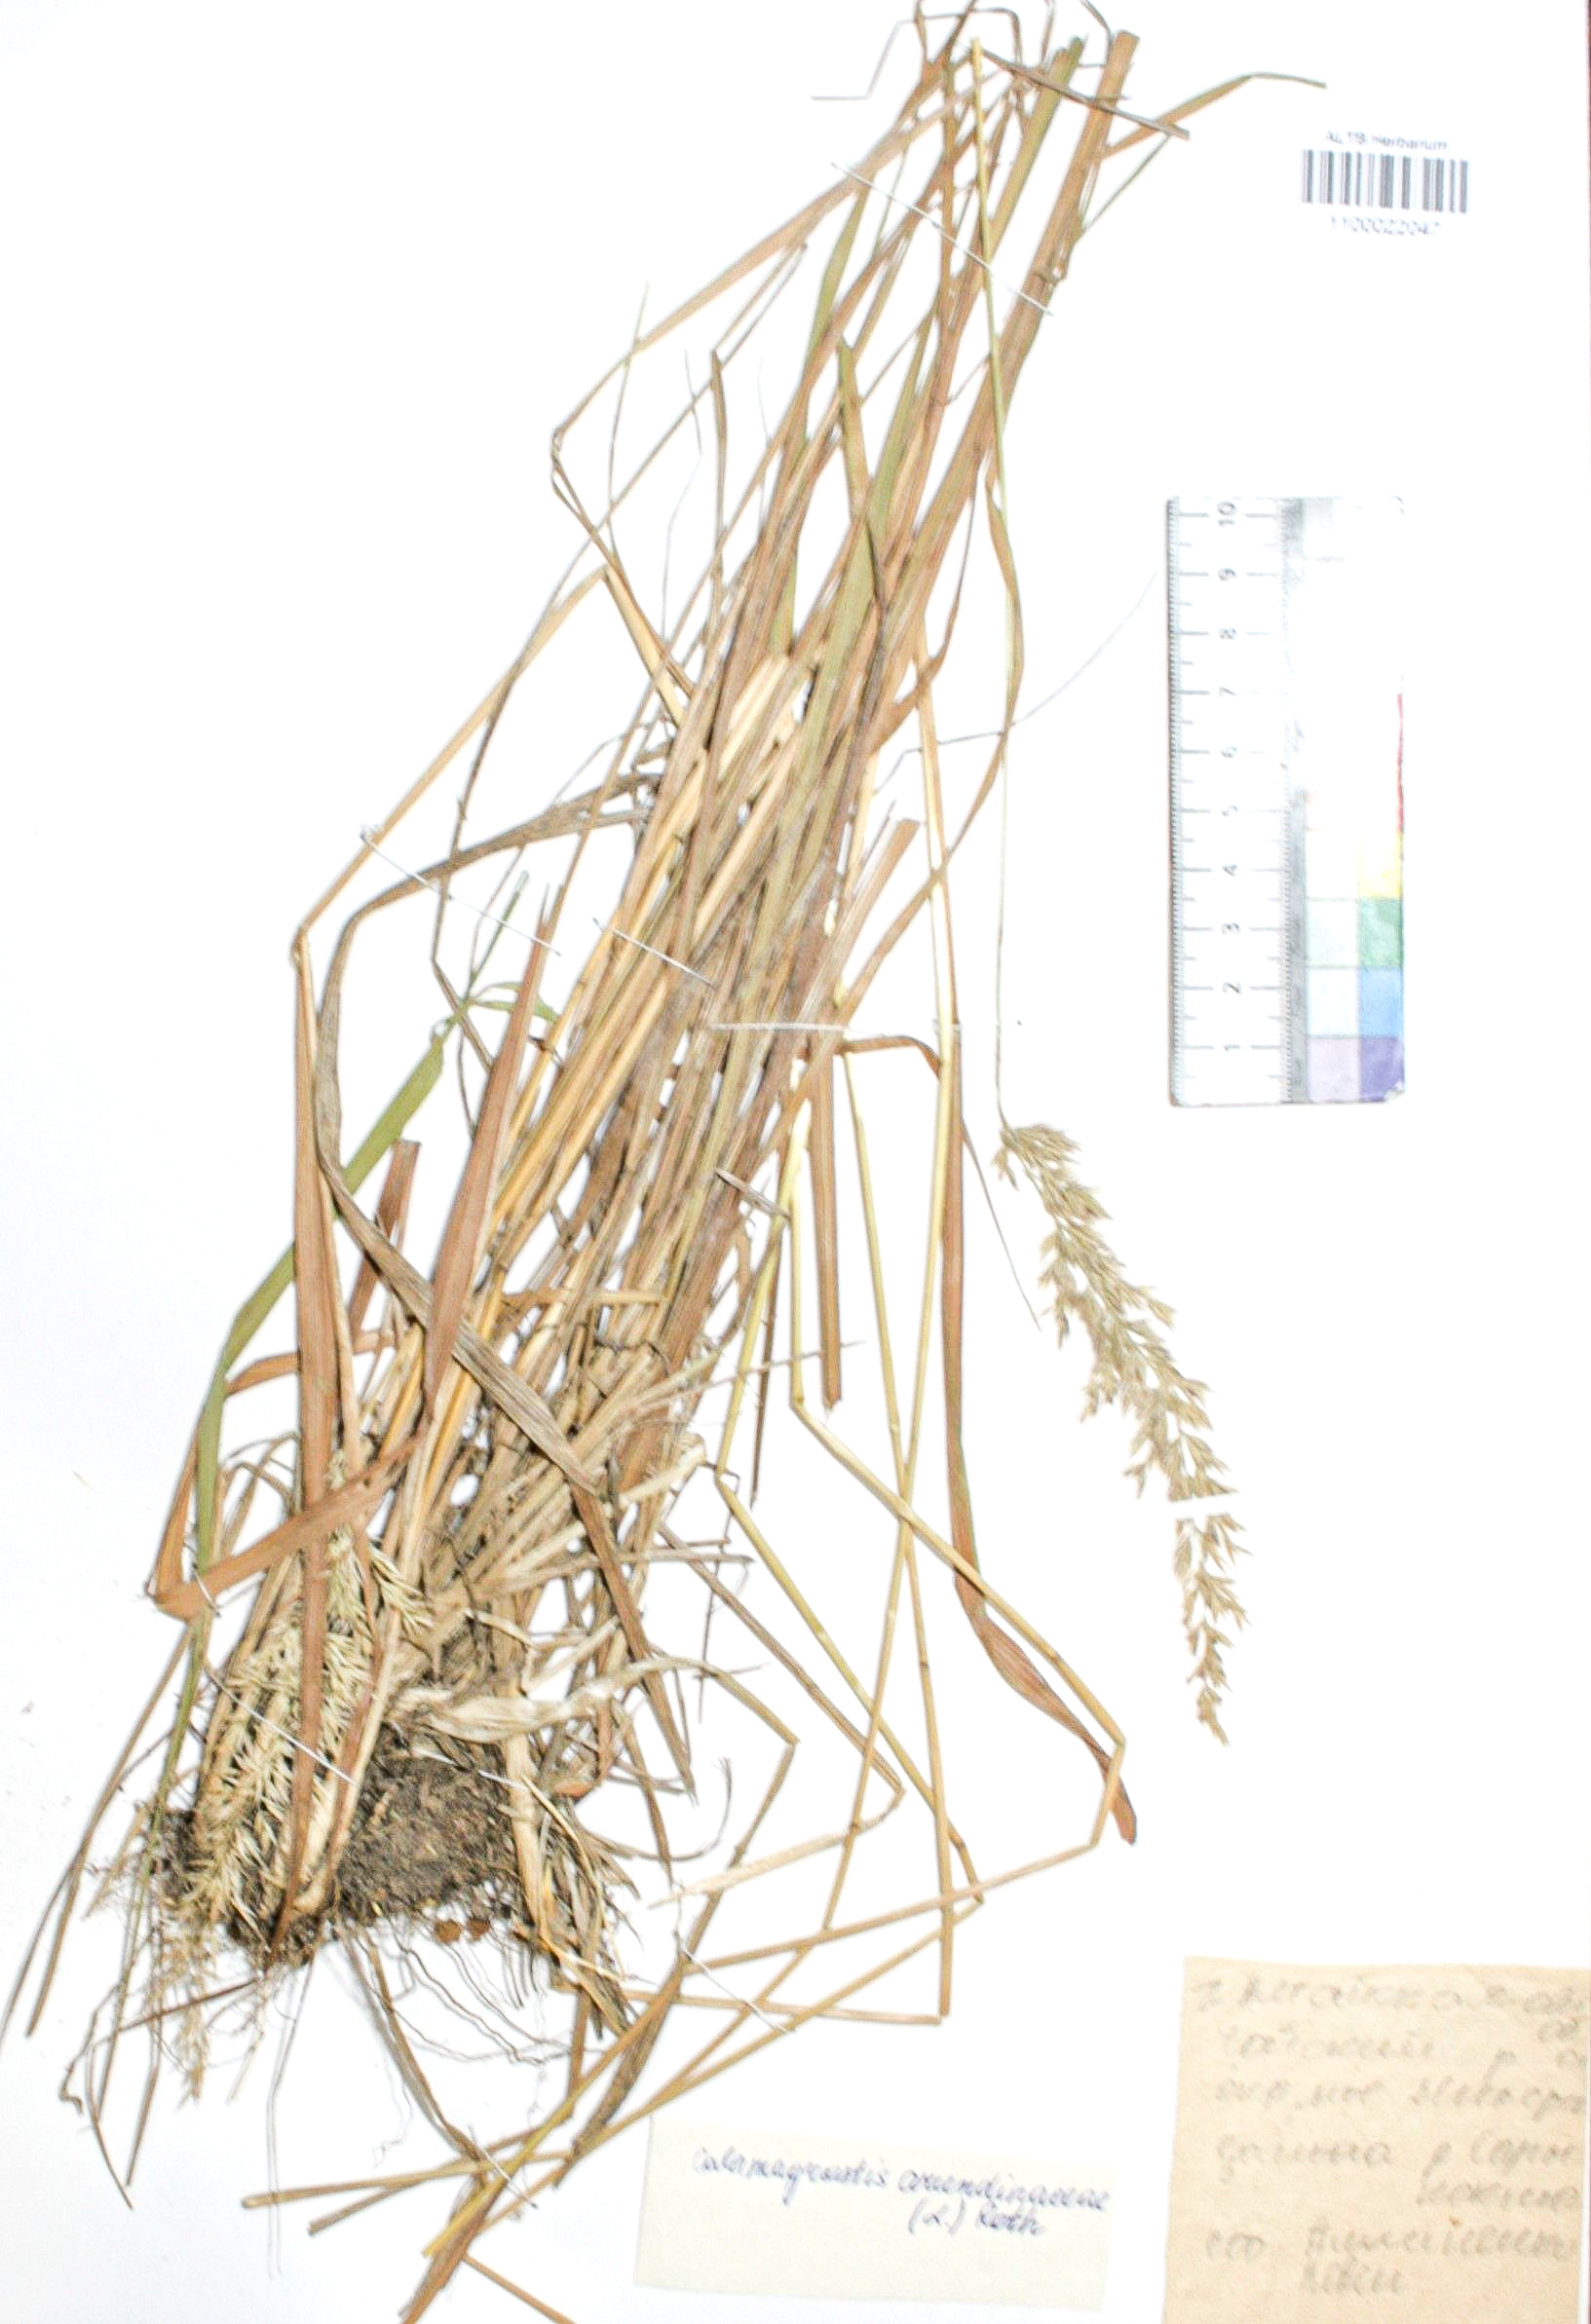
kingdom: Plantae
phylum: Tracheophyta
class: Liliopsida
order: Poales
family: Poaceae
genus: Calamagrostis
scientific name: Calamagrostis arundinacea
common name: Metskastik
